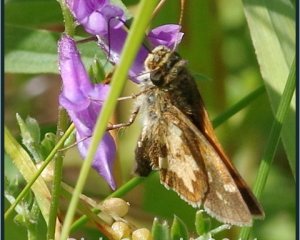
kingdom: Animalia
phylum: Arthropoda
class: Insecta
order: Lepidoptera
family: Hesperiidae
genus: Polites
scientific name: Polites coras
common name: Peck's Skipper
